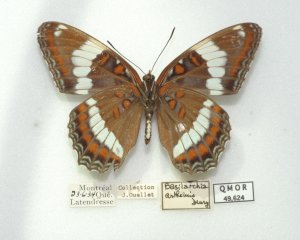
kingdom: Animalia
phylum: Arthropoda
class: Insecta
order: Lepidoptera
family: Nymphalidae
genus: Limenitis
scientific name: Limenitis arthemis
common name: Red-spotted Admiral
